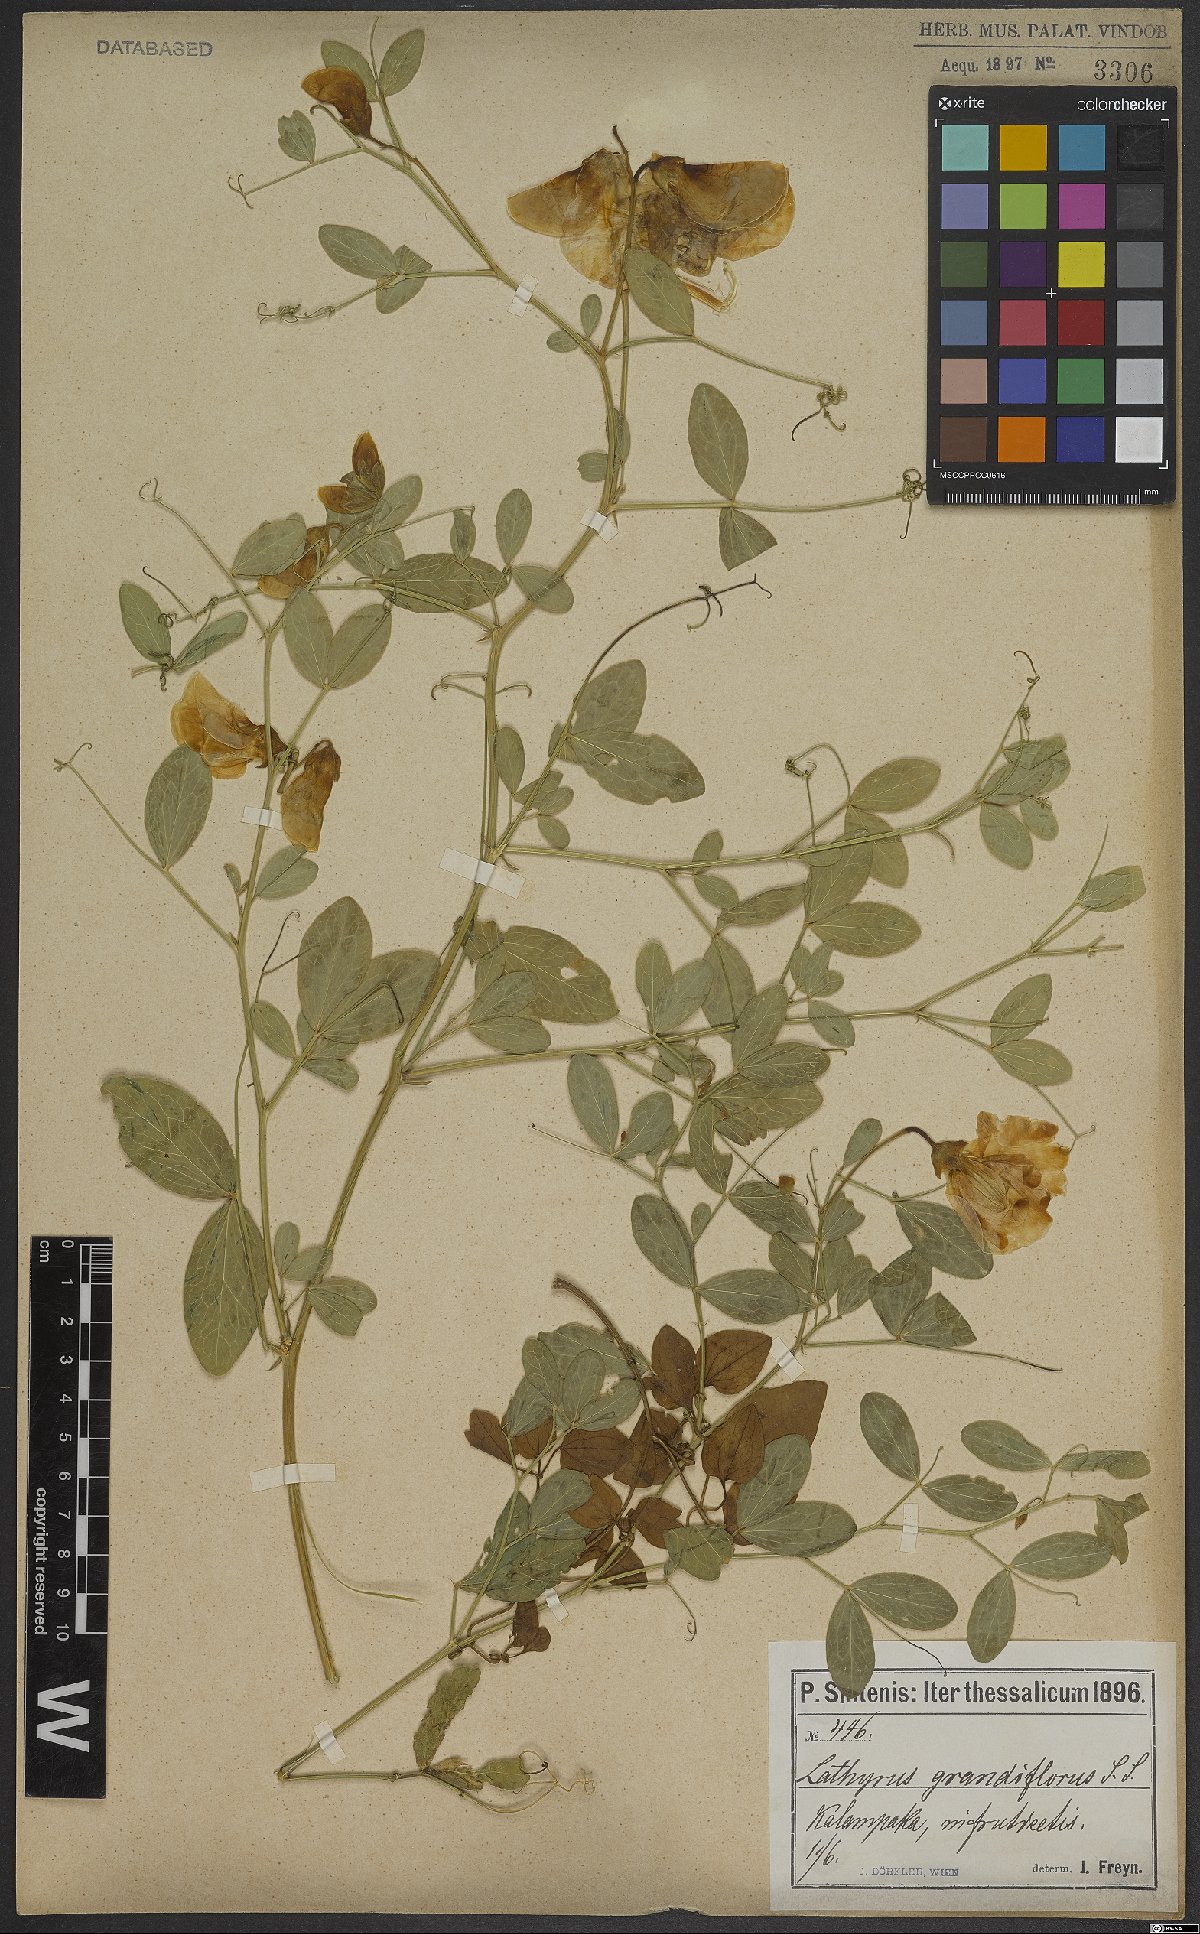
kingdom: Plantae
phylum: Tracheophyta
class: Magnoliopsida
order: Fabales
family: Fabaceae
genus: Lathyrus
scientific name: Lathyrus grandiflorus
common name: Two-flowered everlasting-pea
